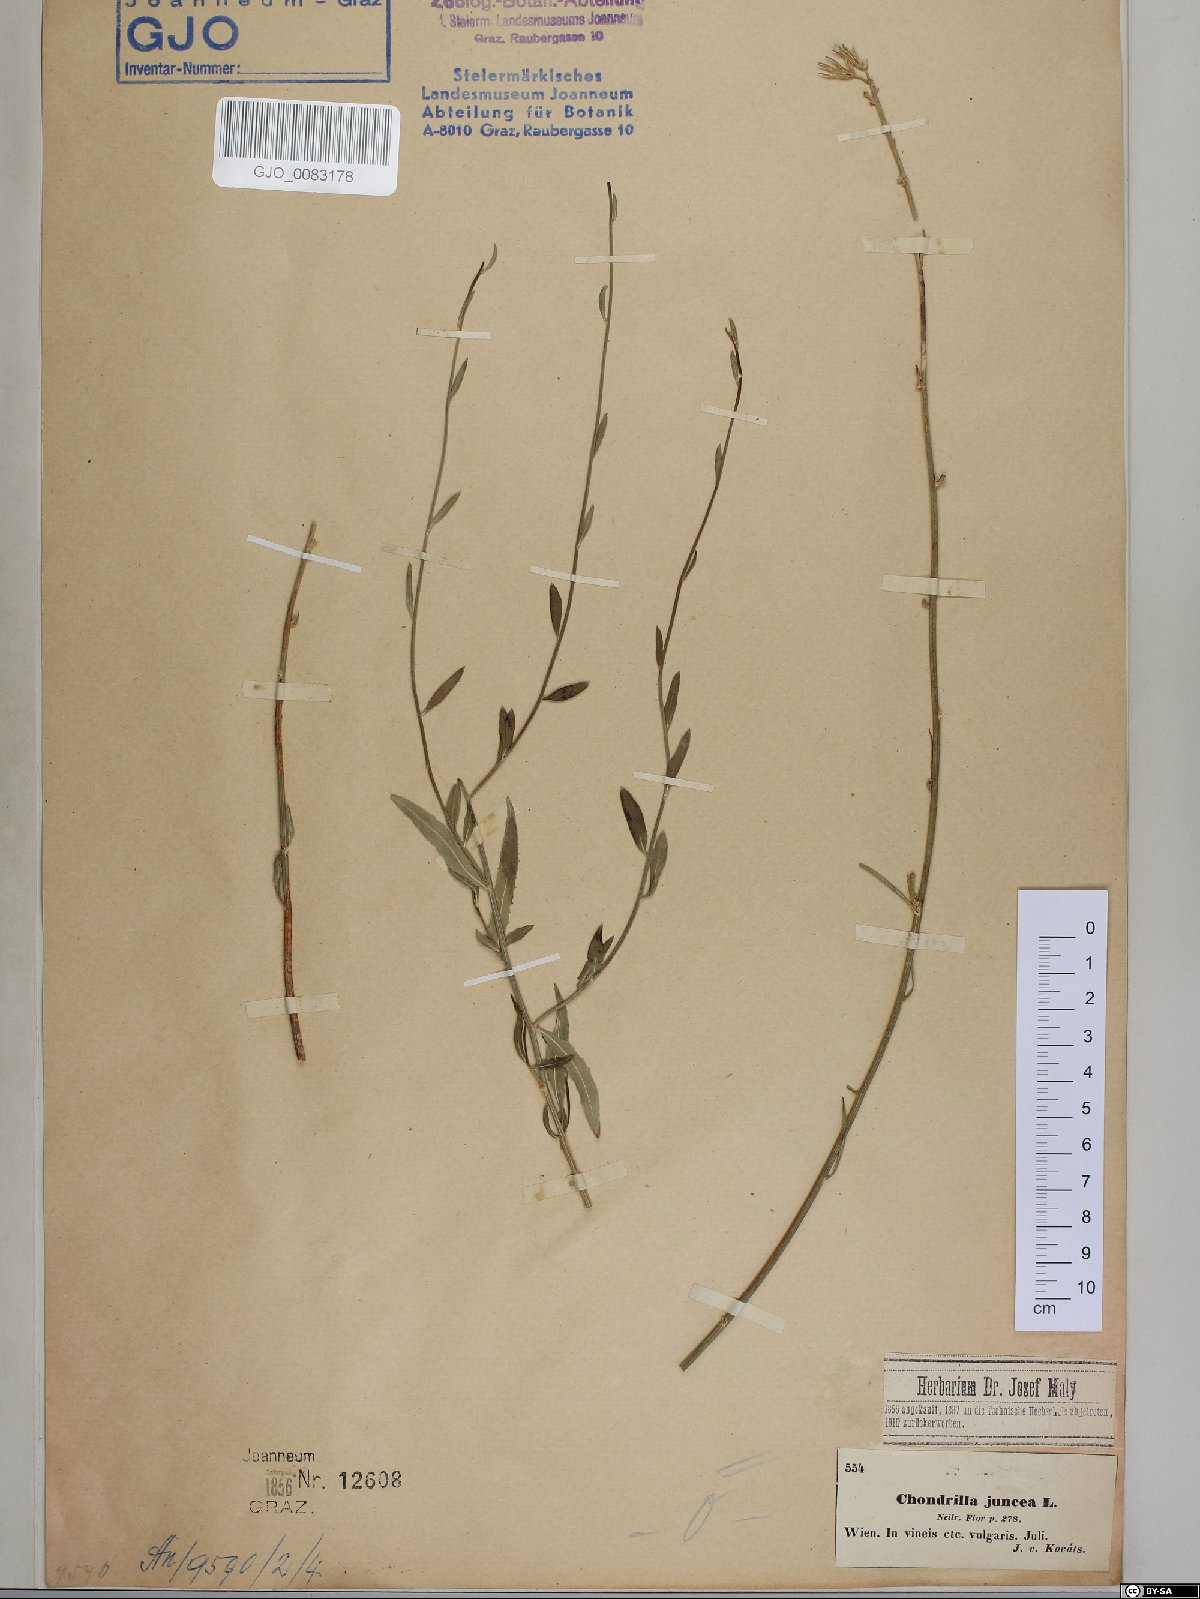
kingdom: Plantae
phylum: Tracheophyta
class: Magnoliopsida
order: Asterales
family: Asteraceae
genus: Chondrilla
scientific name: Chondrilla juncea
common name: Skeleton weed
